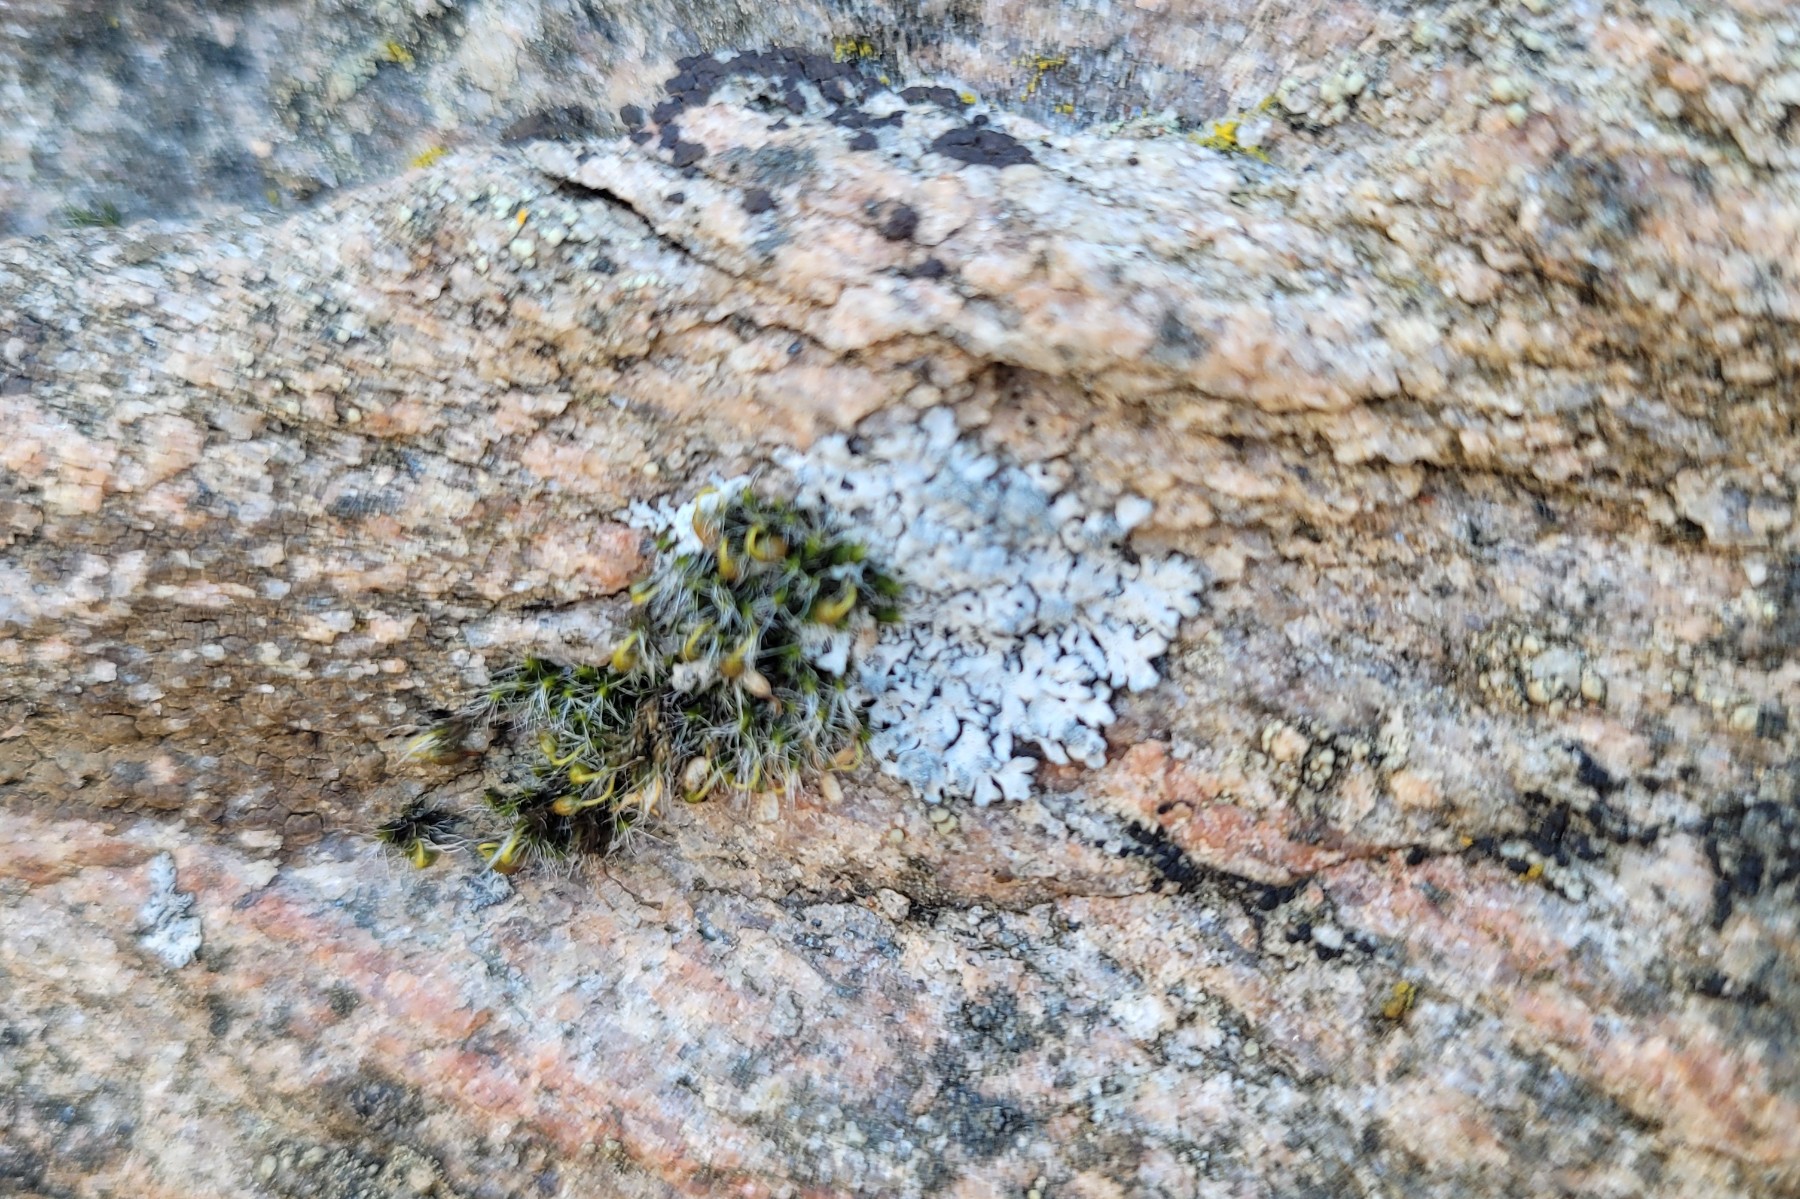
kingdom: Fungi
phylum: Ascomycota
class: Lecanoromycetes
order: Caliciales
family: Physciaceae
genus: Physcia
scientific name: Physcia caesia
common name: blågrå rosetlav
